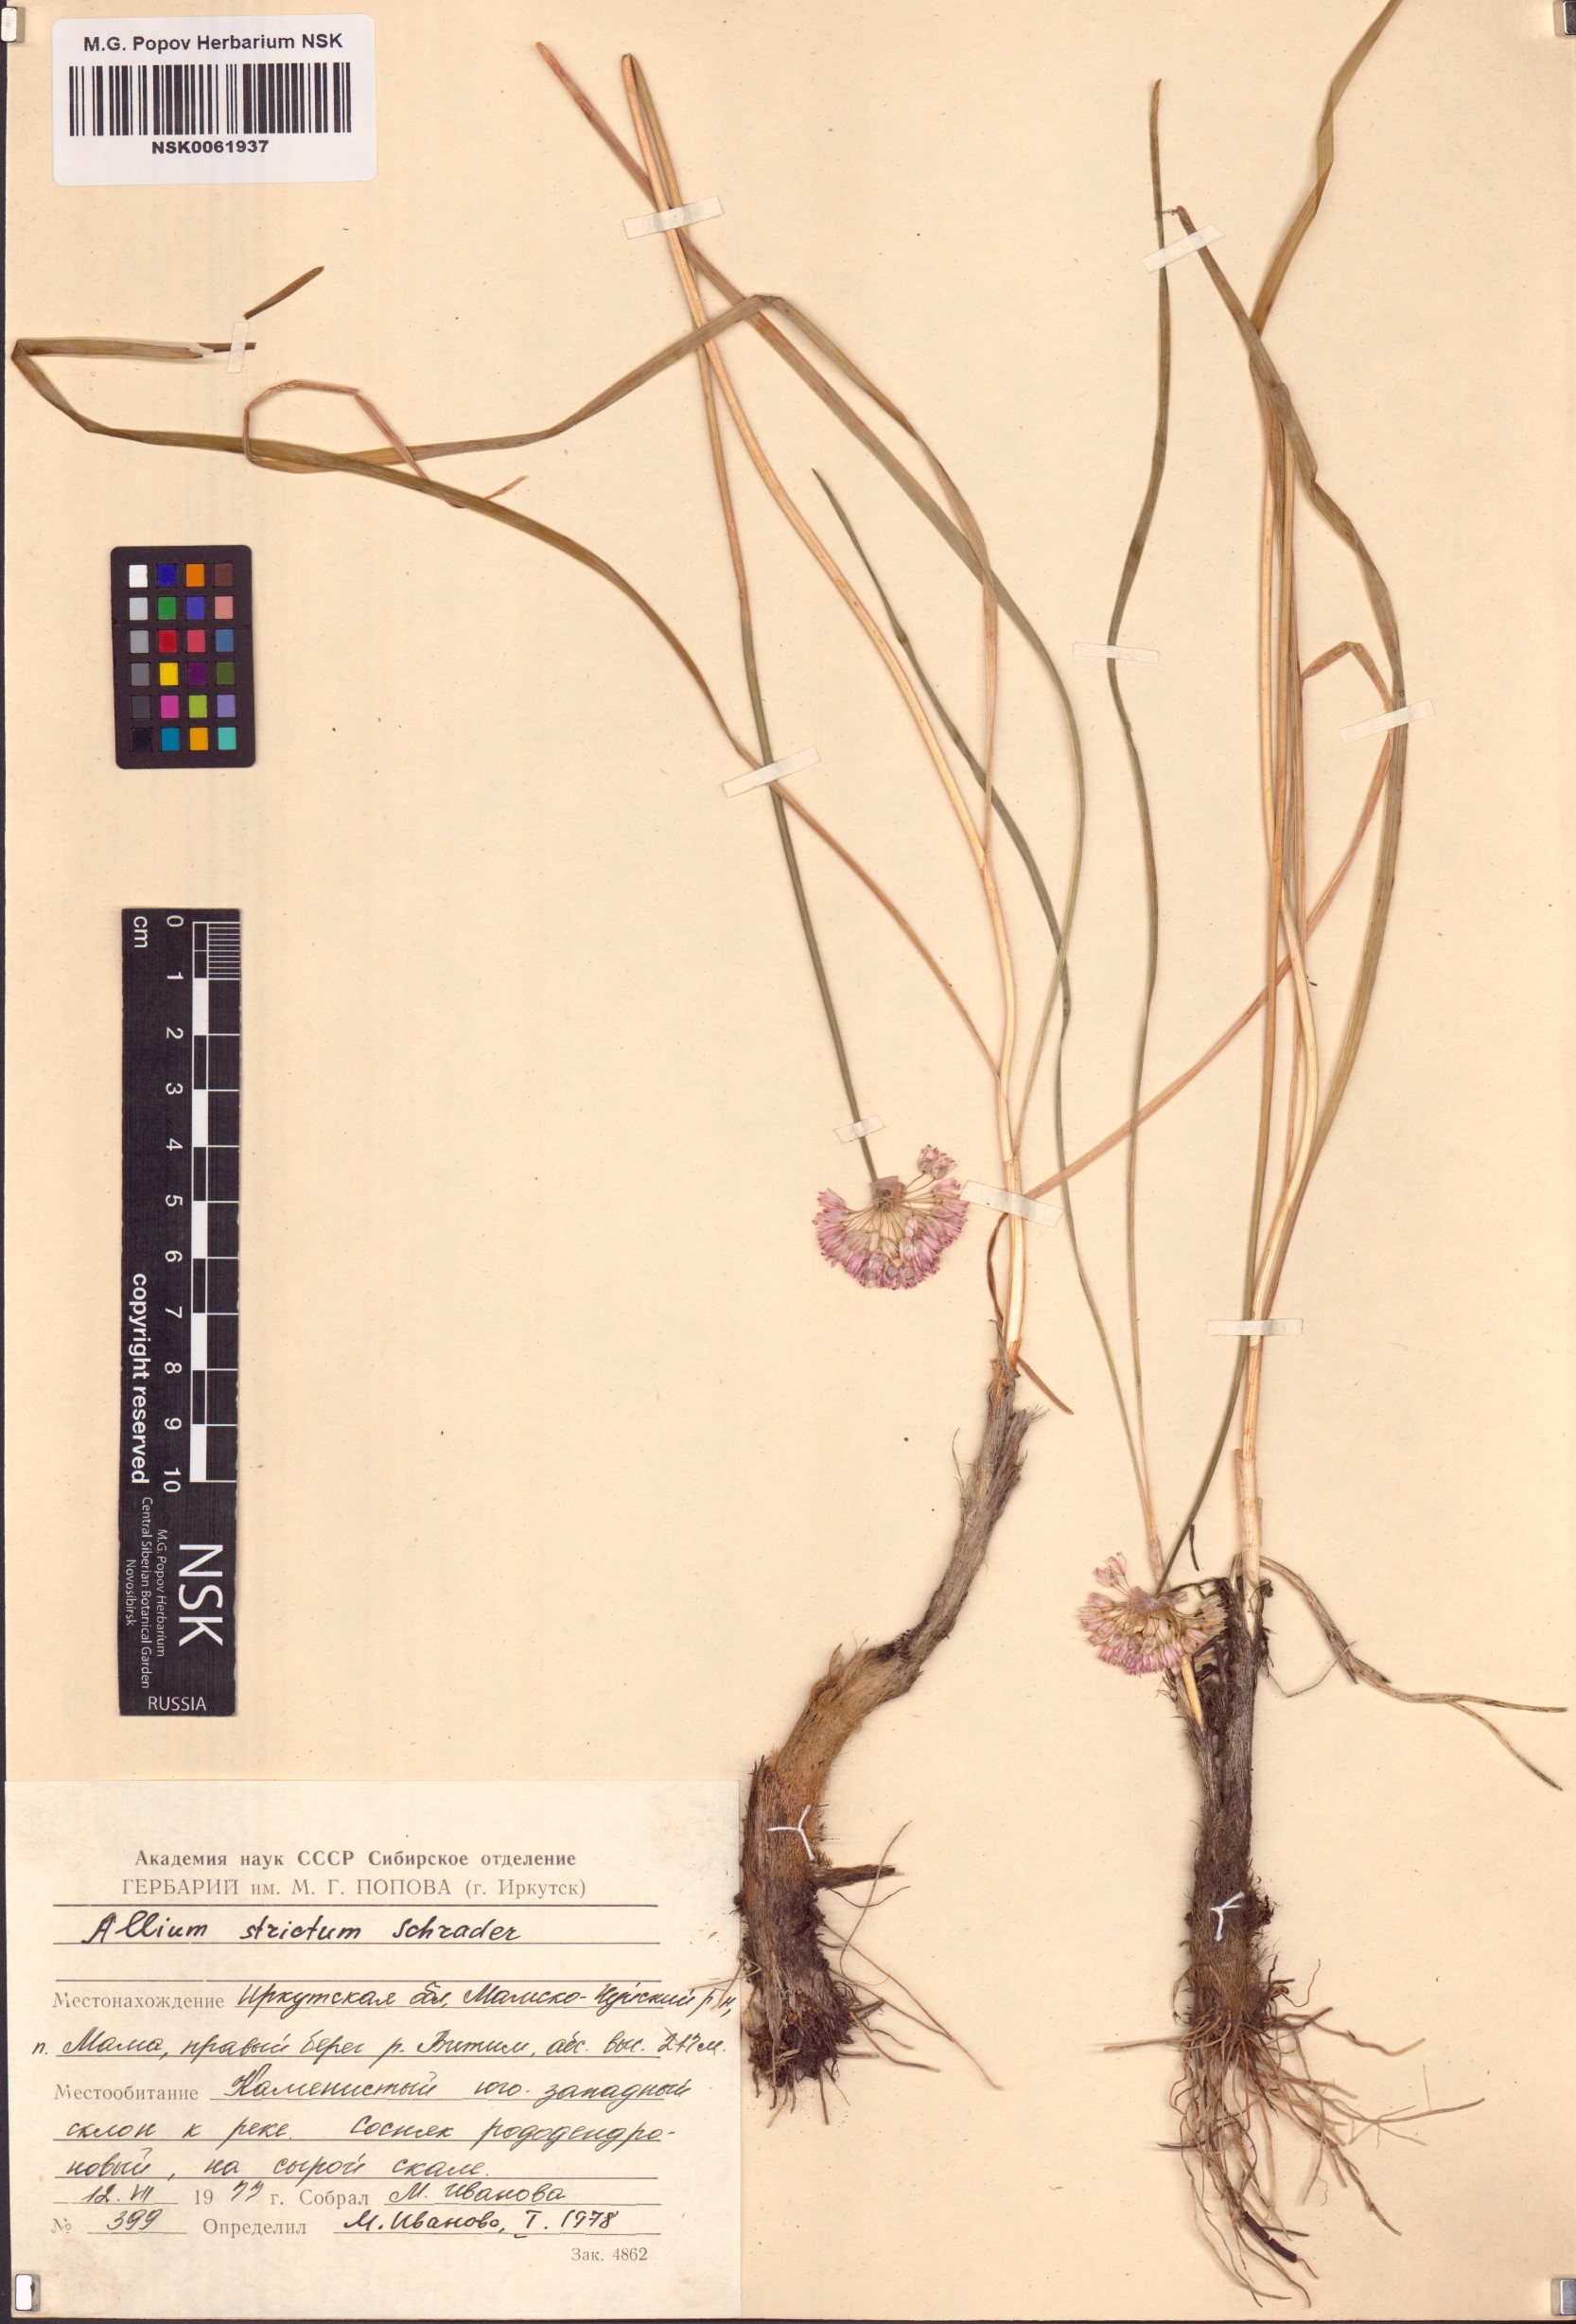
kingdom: Plantae
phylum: Tracheophyta
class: Liliopsida
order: Asparagales
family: Amaryllidaceae
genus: Allium
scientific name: Allium strictum
